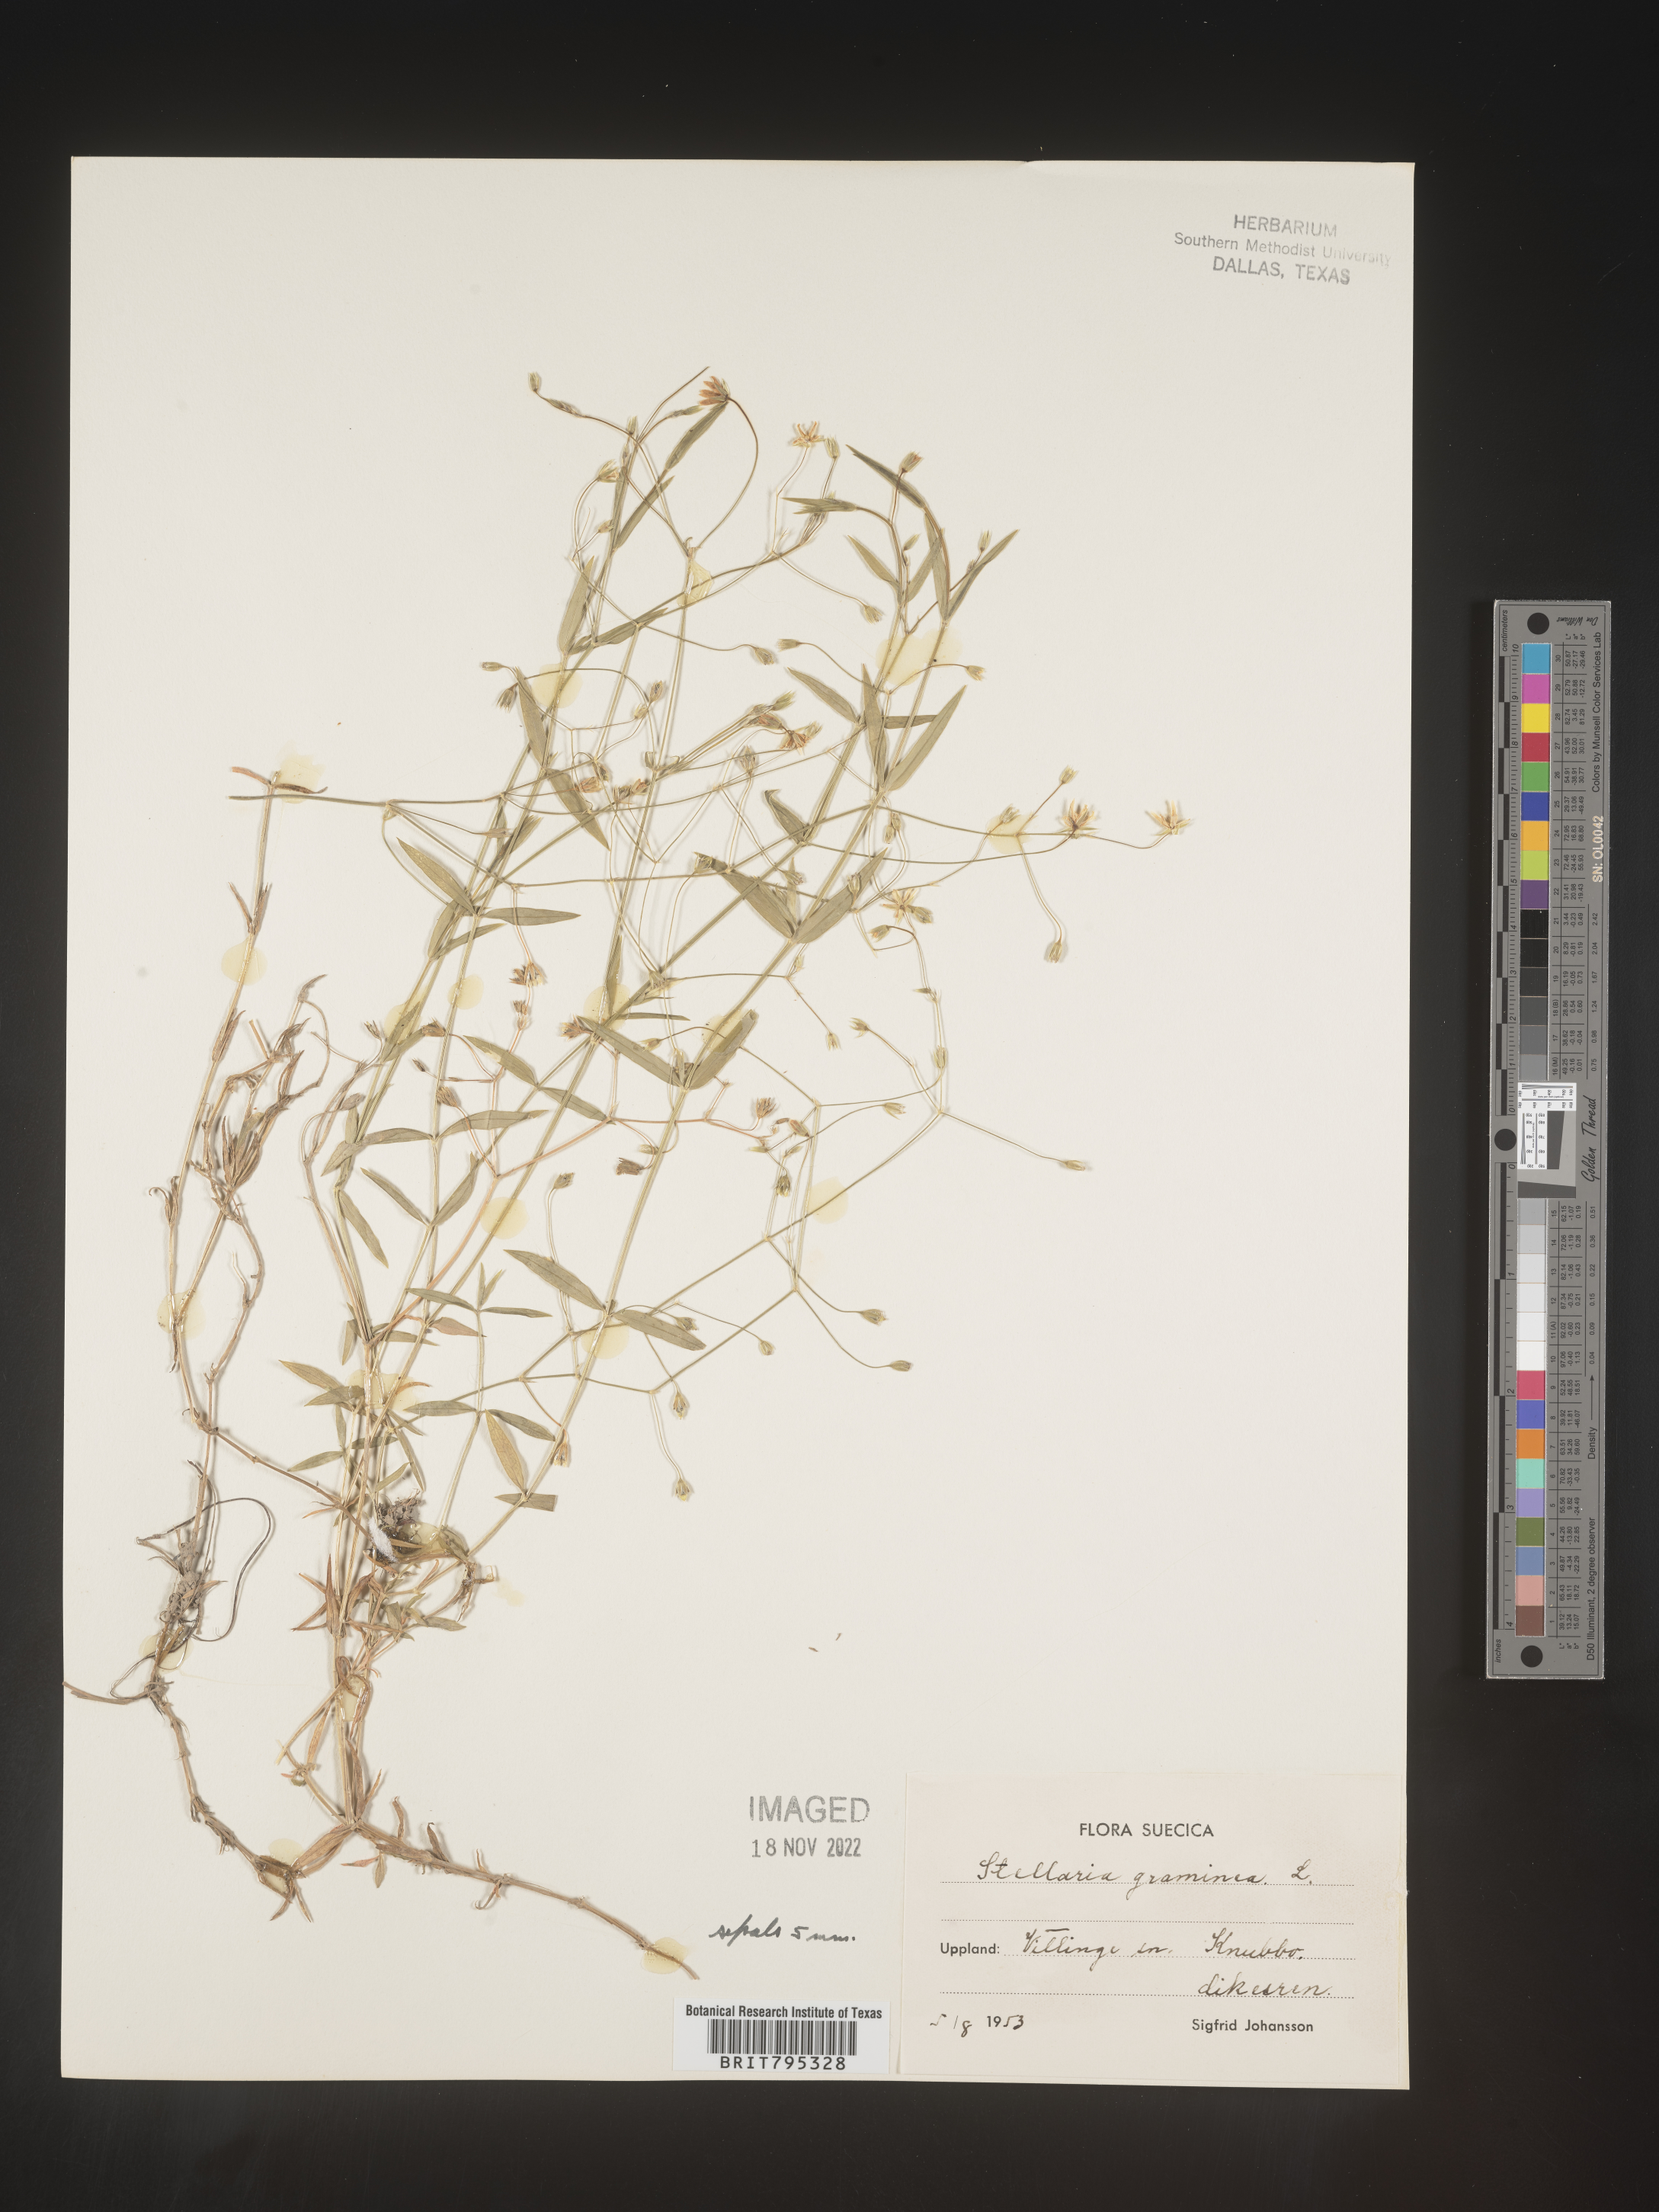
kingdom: Plantae
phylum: Tracheophyta
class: Magnoliopsida
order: Caryophyllales
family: Caryophyllaceae
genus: Stellaria
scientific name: Stellaria
